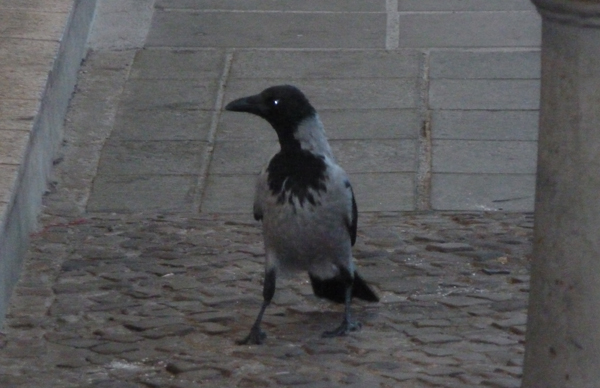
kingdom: Animalia
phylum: Chordata
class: Aves
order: Passeriformes
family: Corvidae
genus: Corvus
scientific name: Corvus cornix
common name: Hooded crow
